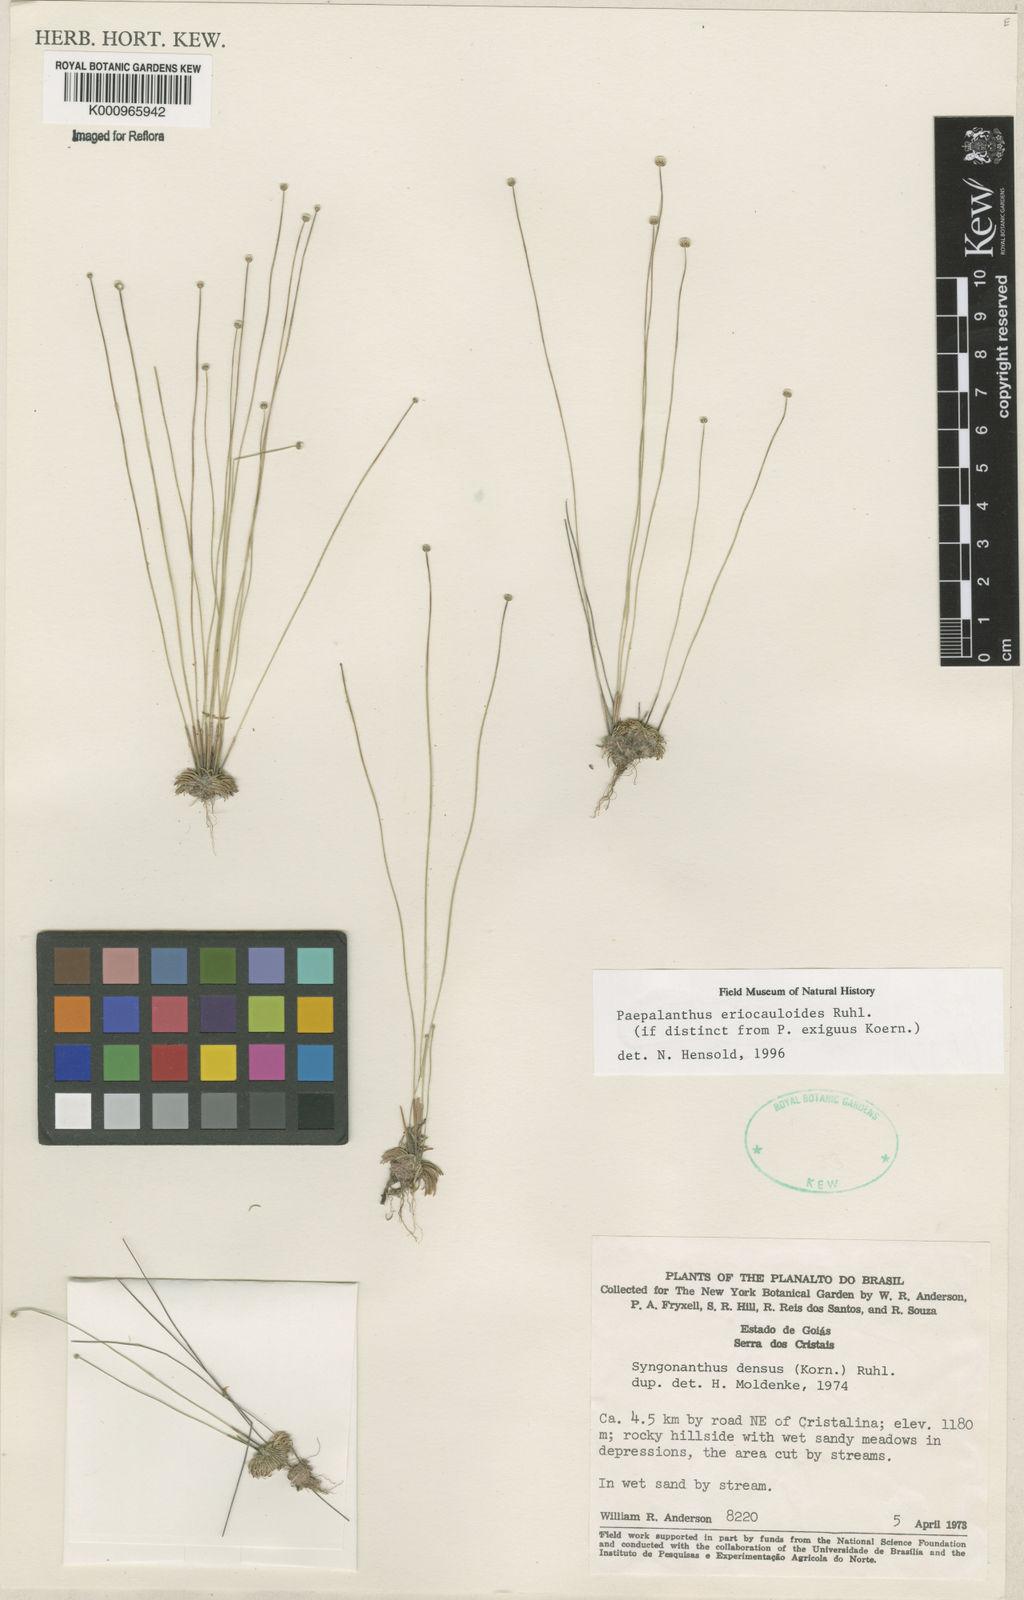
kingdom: Plantae
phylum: Tracheophyta
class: Liliopsida
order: Poales
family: Eriocaulaceae
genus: Paepalanthus
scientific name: Paepalanthus eriocauloides
